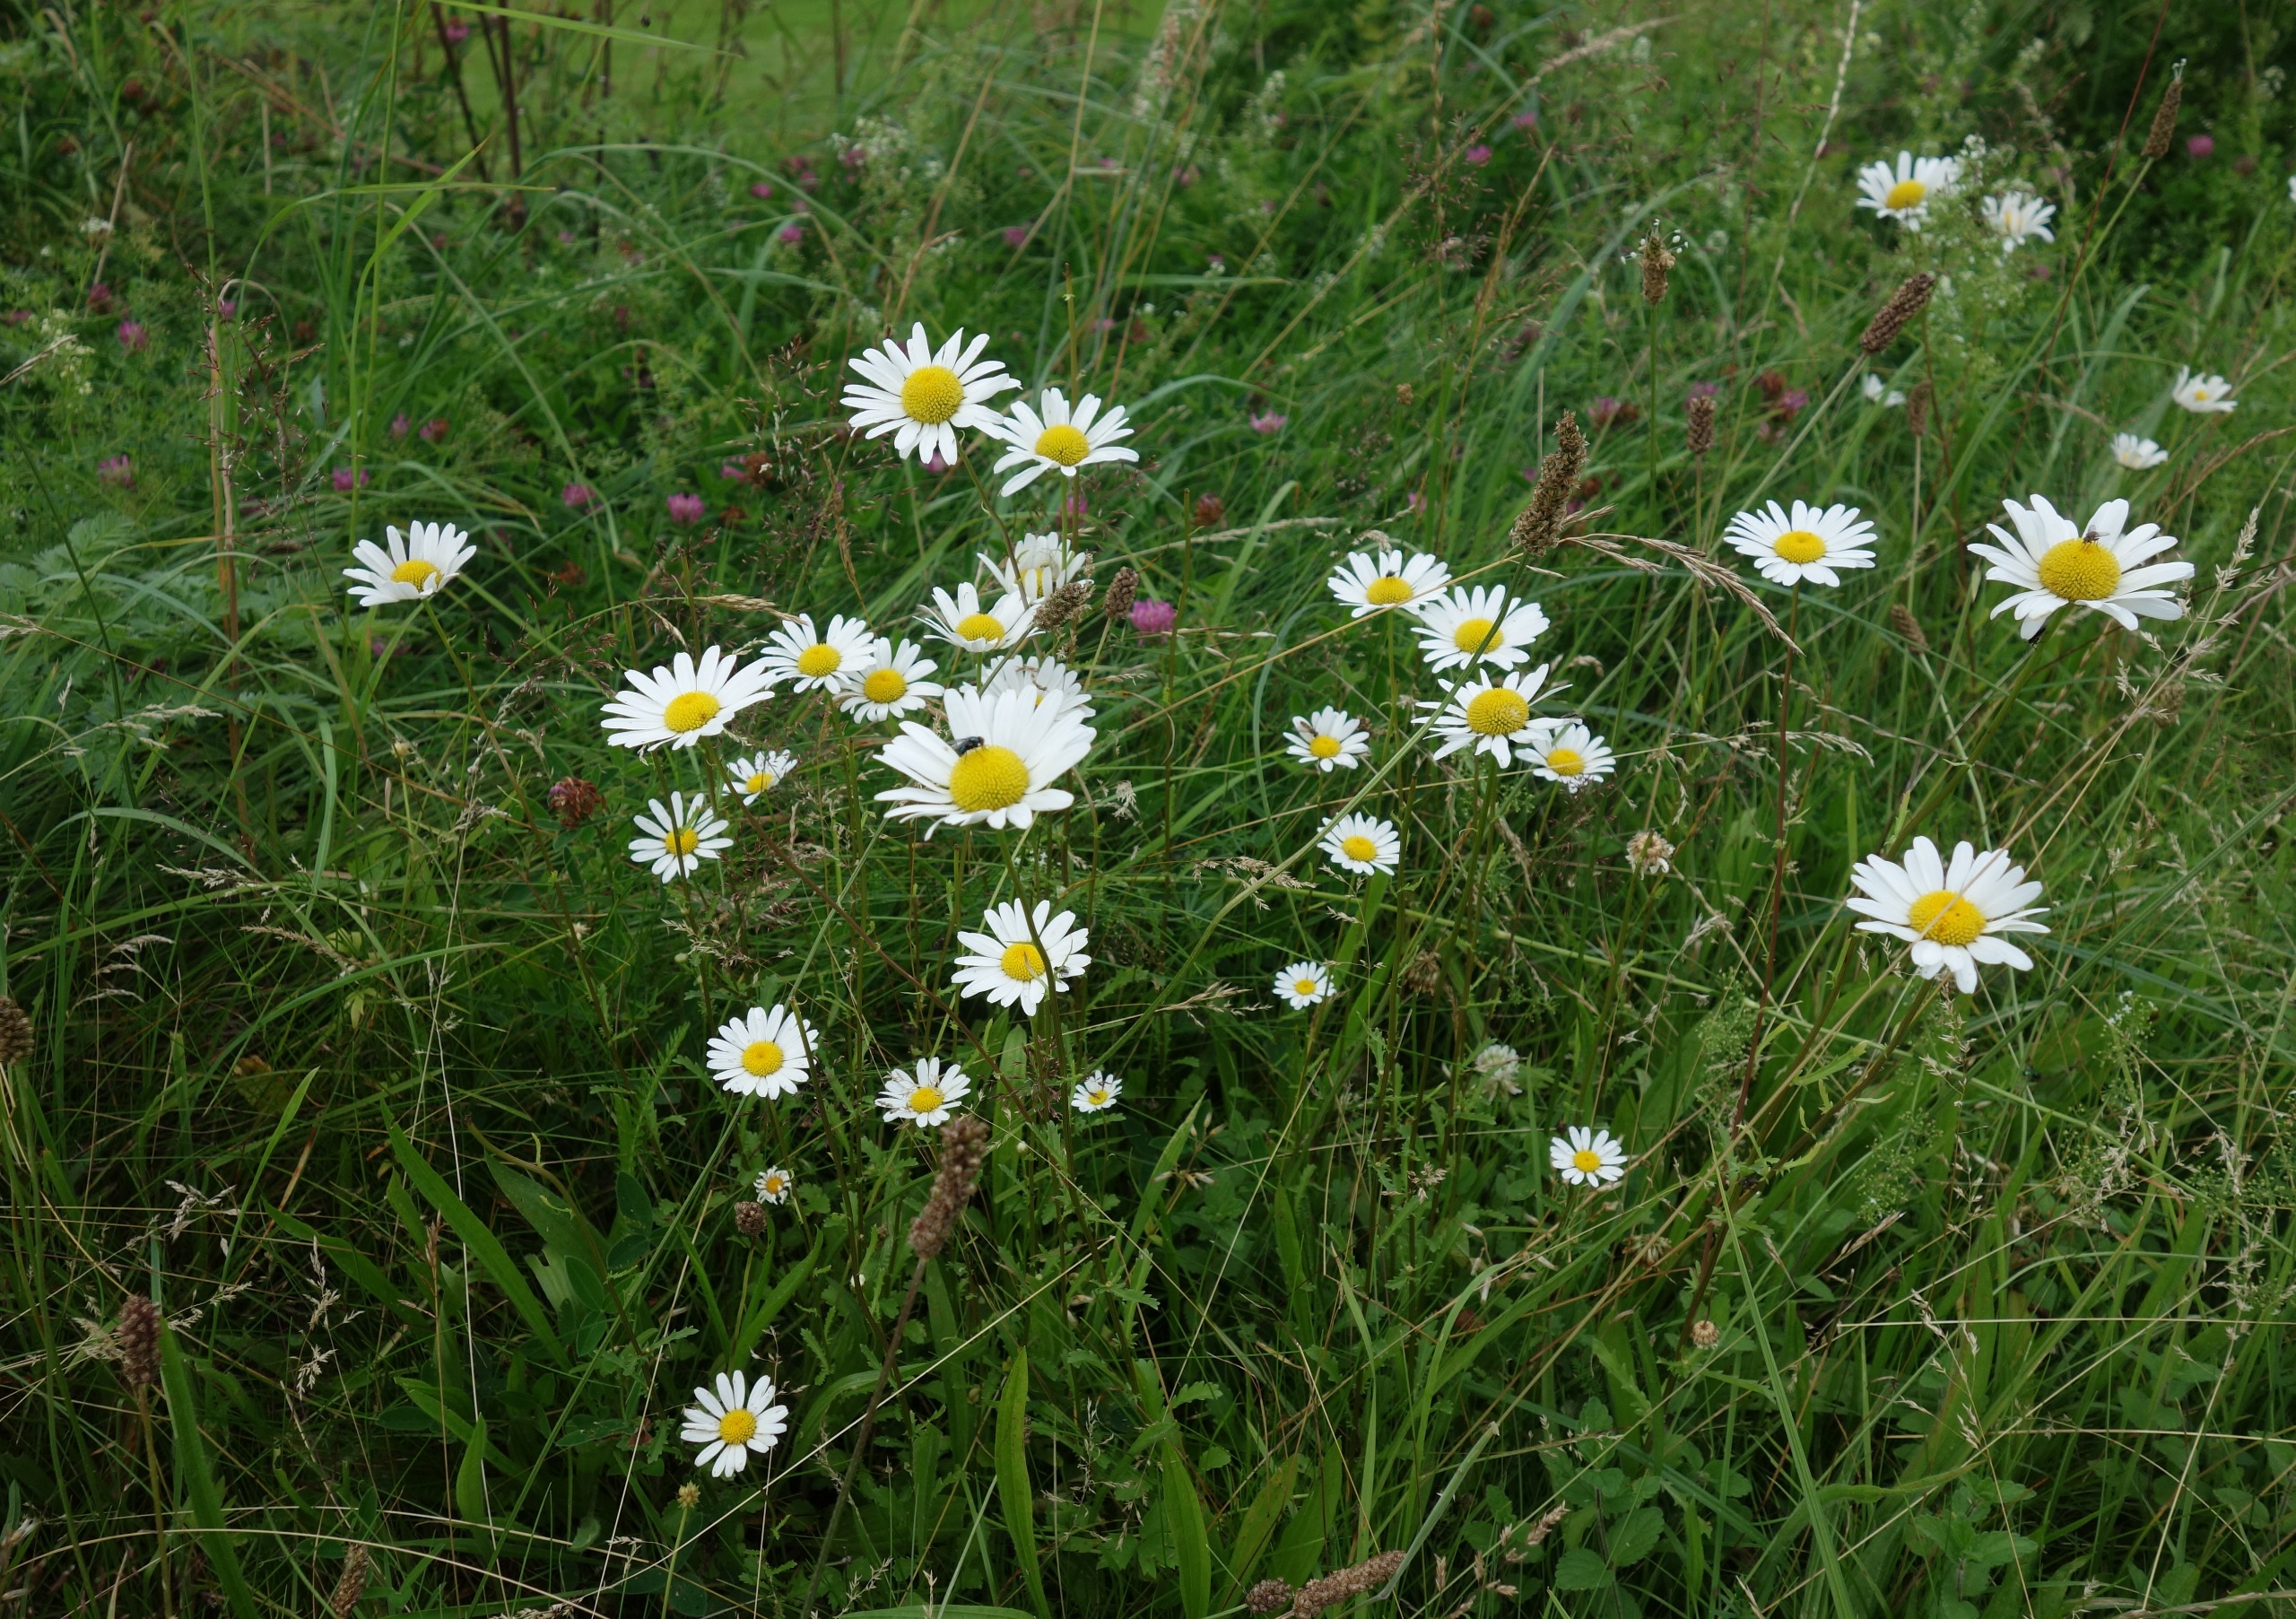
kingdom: Plantae
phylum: Tracheophyta
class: Magnoliopsida
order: Asterales
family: Asteraceae
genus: Leucanthemum
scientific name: Leucanthemum vulgare
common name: Hvid okseøje
